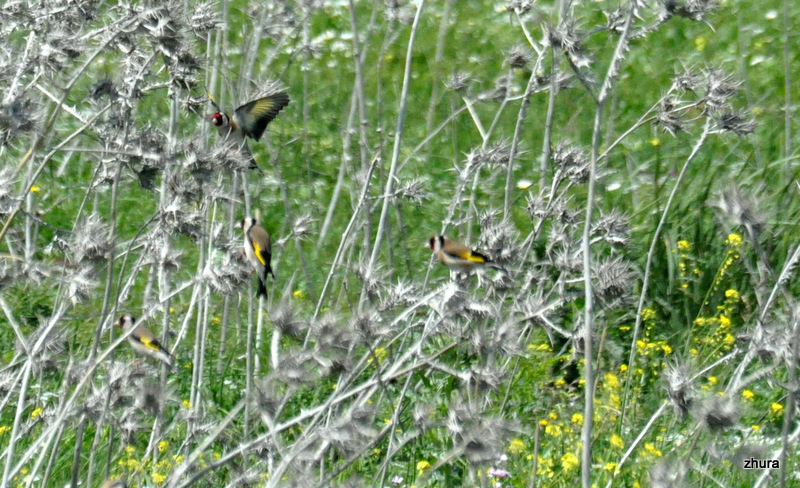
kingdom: Animalia
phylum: Chordata
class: Aves
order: Passeriformes
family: Fringillidae
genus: Carduelis
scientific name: Carduelis carduelis
